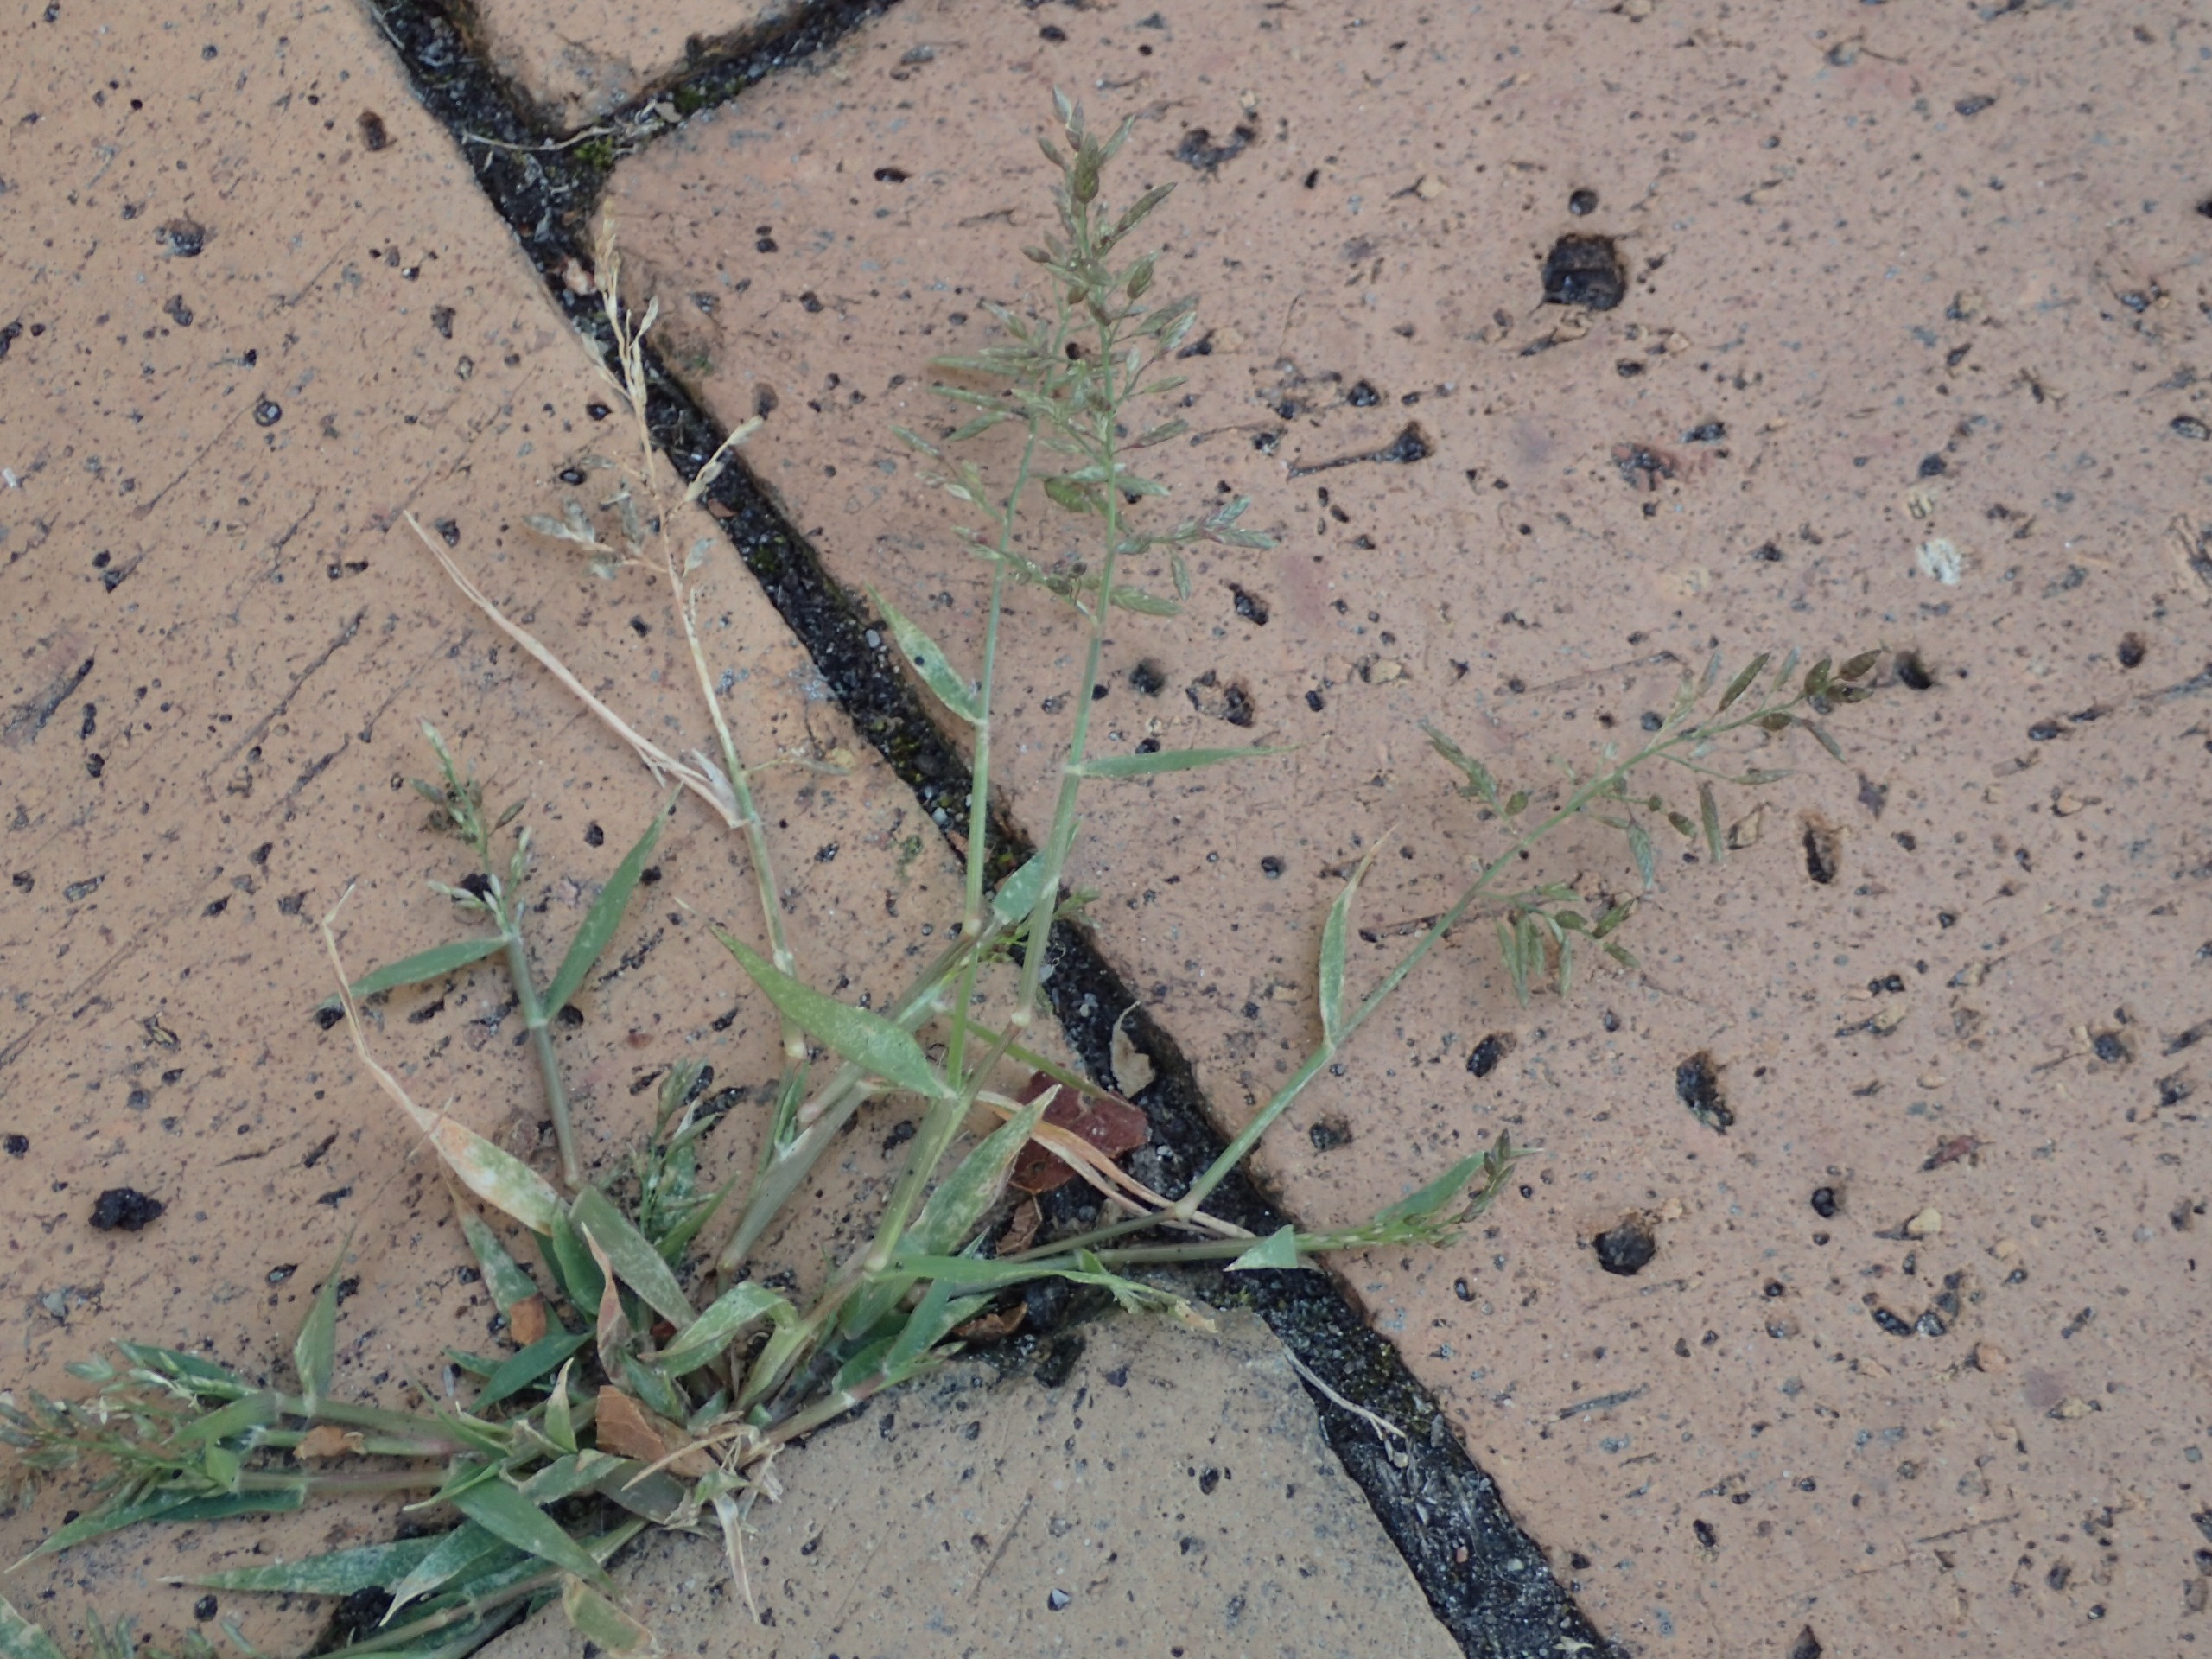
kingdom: Plantae
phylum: Tracheophyta
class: Liliopsida
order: Poales
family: Poaceae
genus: Eragrostis
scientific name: Eragrostis minor
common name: Liden kærlighedsgræs
